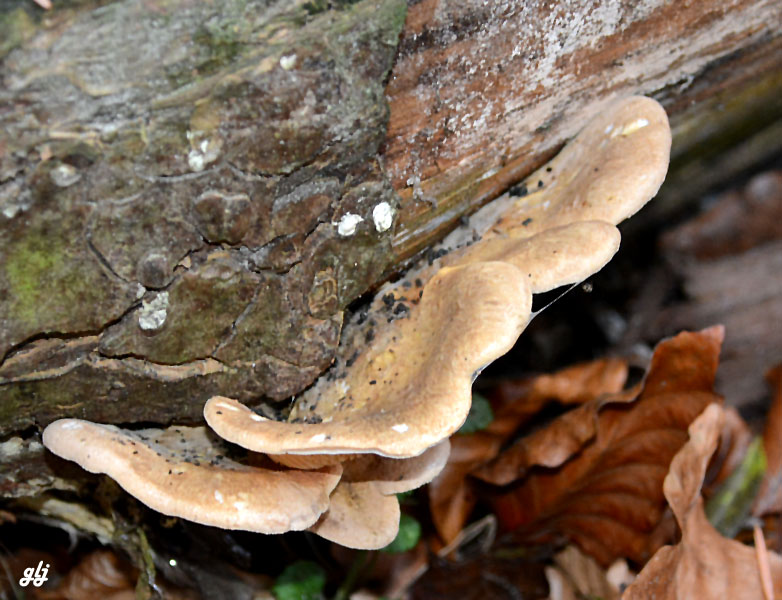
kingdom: Fungi
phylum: Basidiomycota
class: Agaricomycetes
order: Boletales
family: Tapinellaceae
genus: Tapinella
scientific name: Tapinella panuoides
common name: tømmer-viftesvamp
